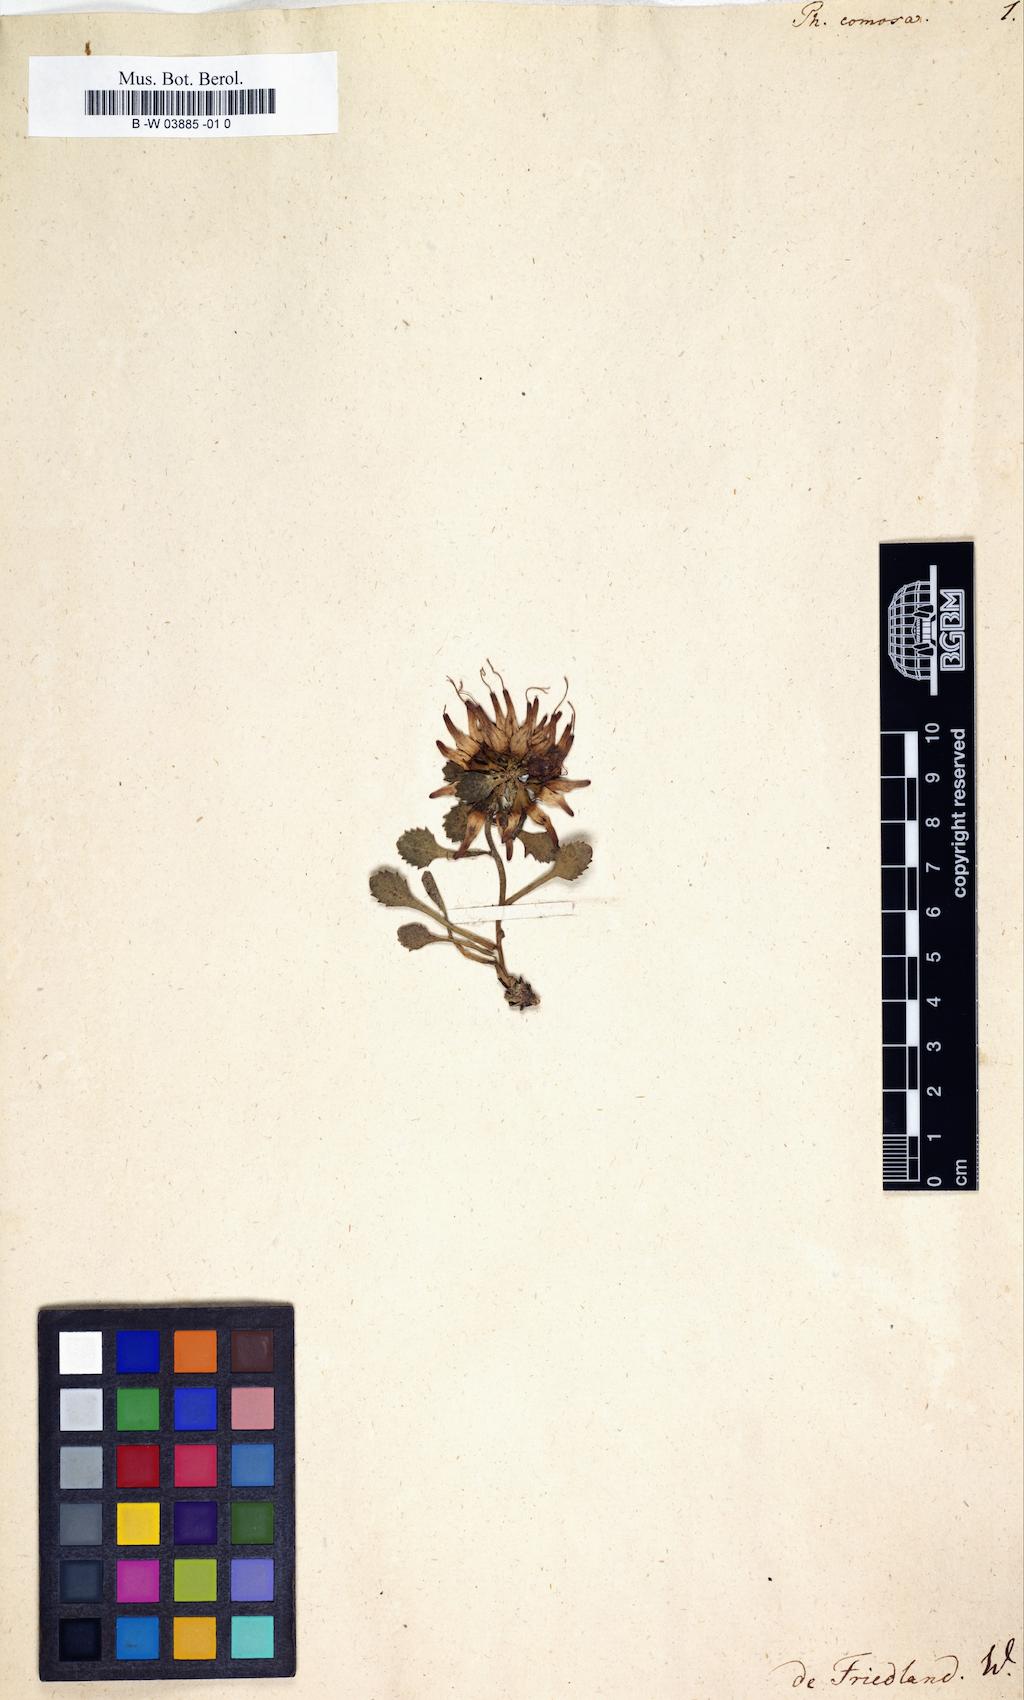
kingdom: Plantae
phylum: Tracheophyta
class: Magnoliopsida
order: Asterales
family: Campanulaceae
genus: Physoplexis
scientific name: Physoplexis comosa
